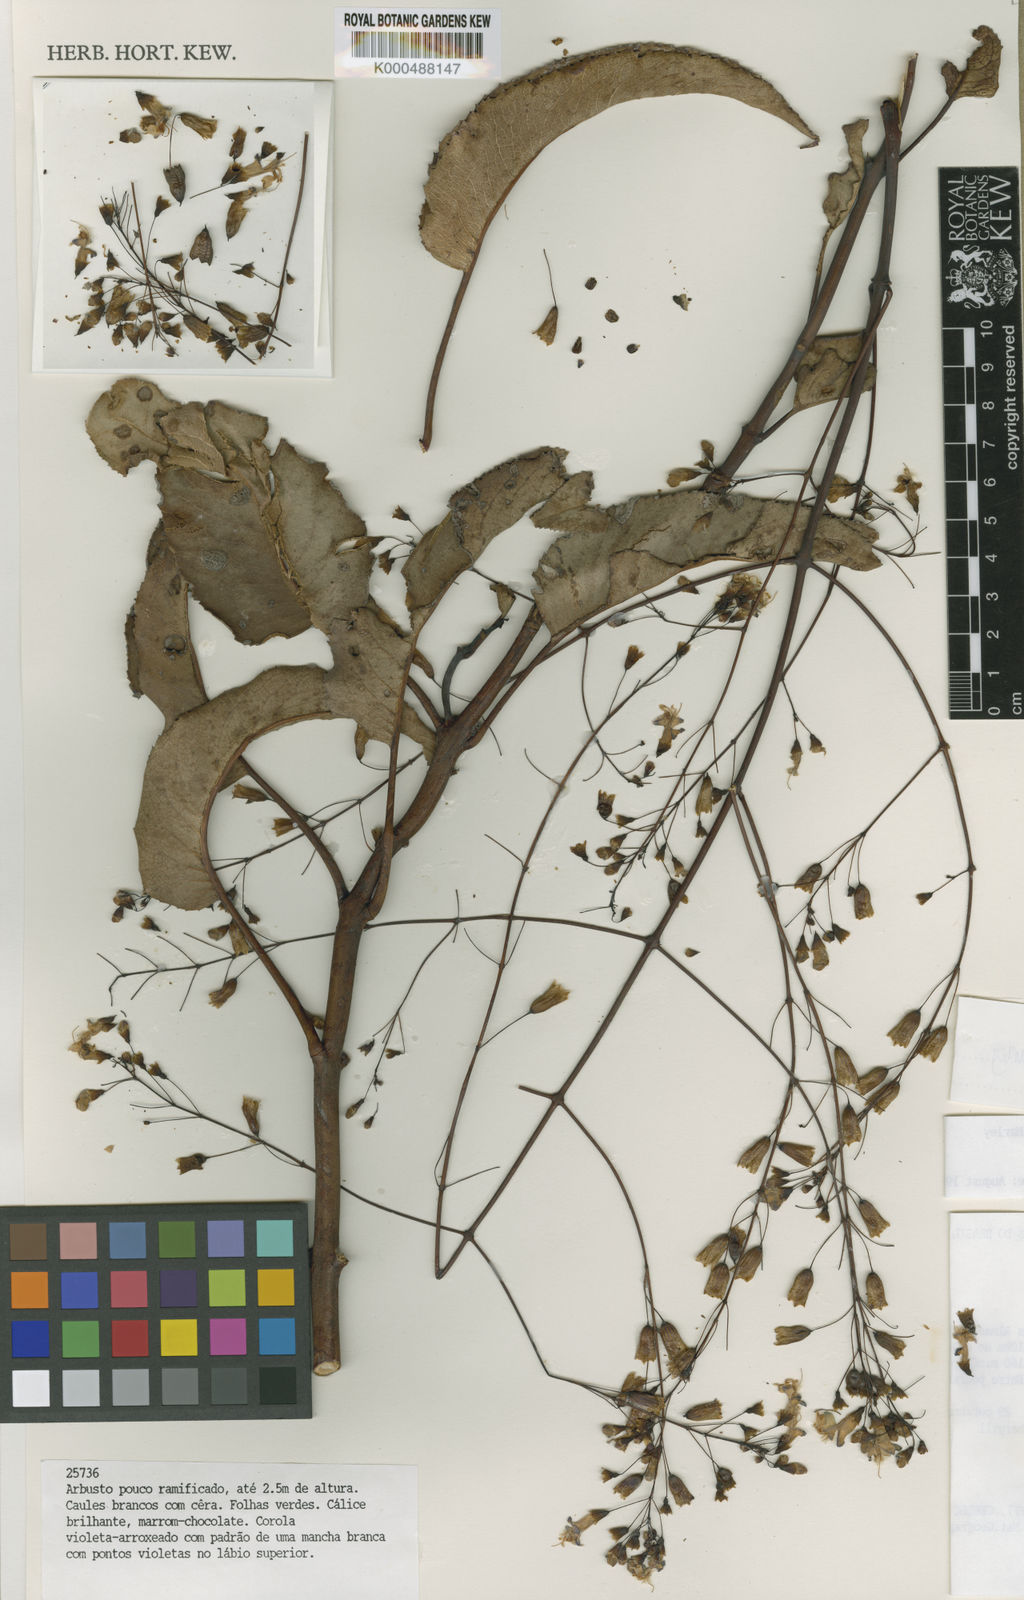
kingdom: Plantae
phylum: Tracheophyta
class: Magnoliopsida
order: Lamiales
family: Lamiaceae
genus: Eriope
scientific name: Eriope luetzelburgii
